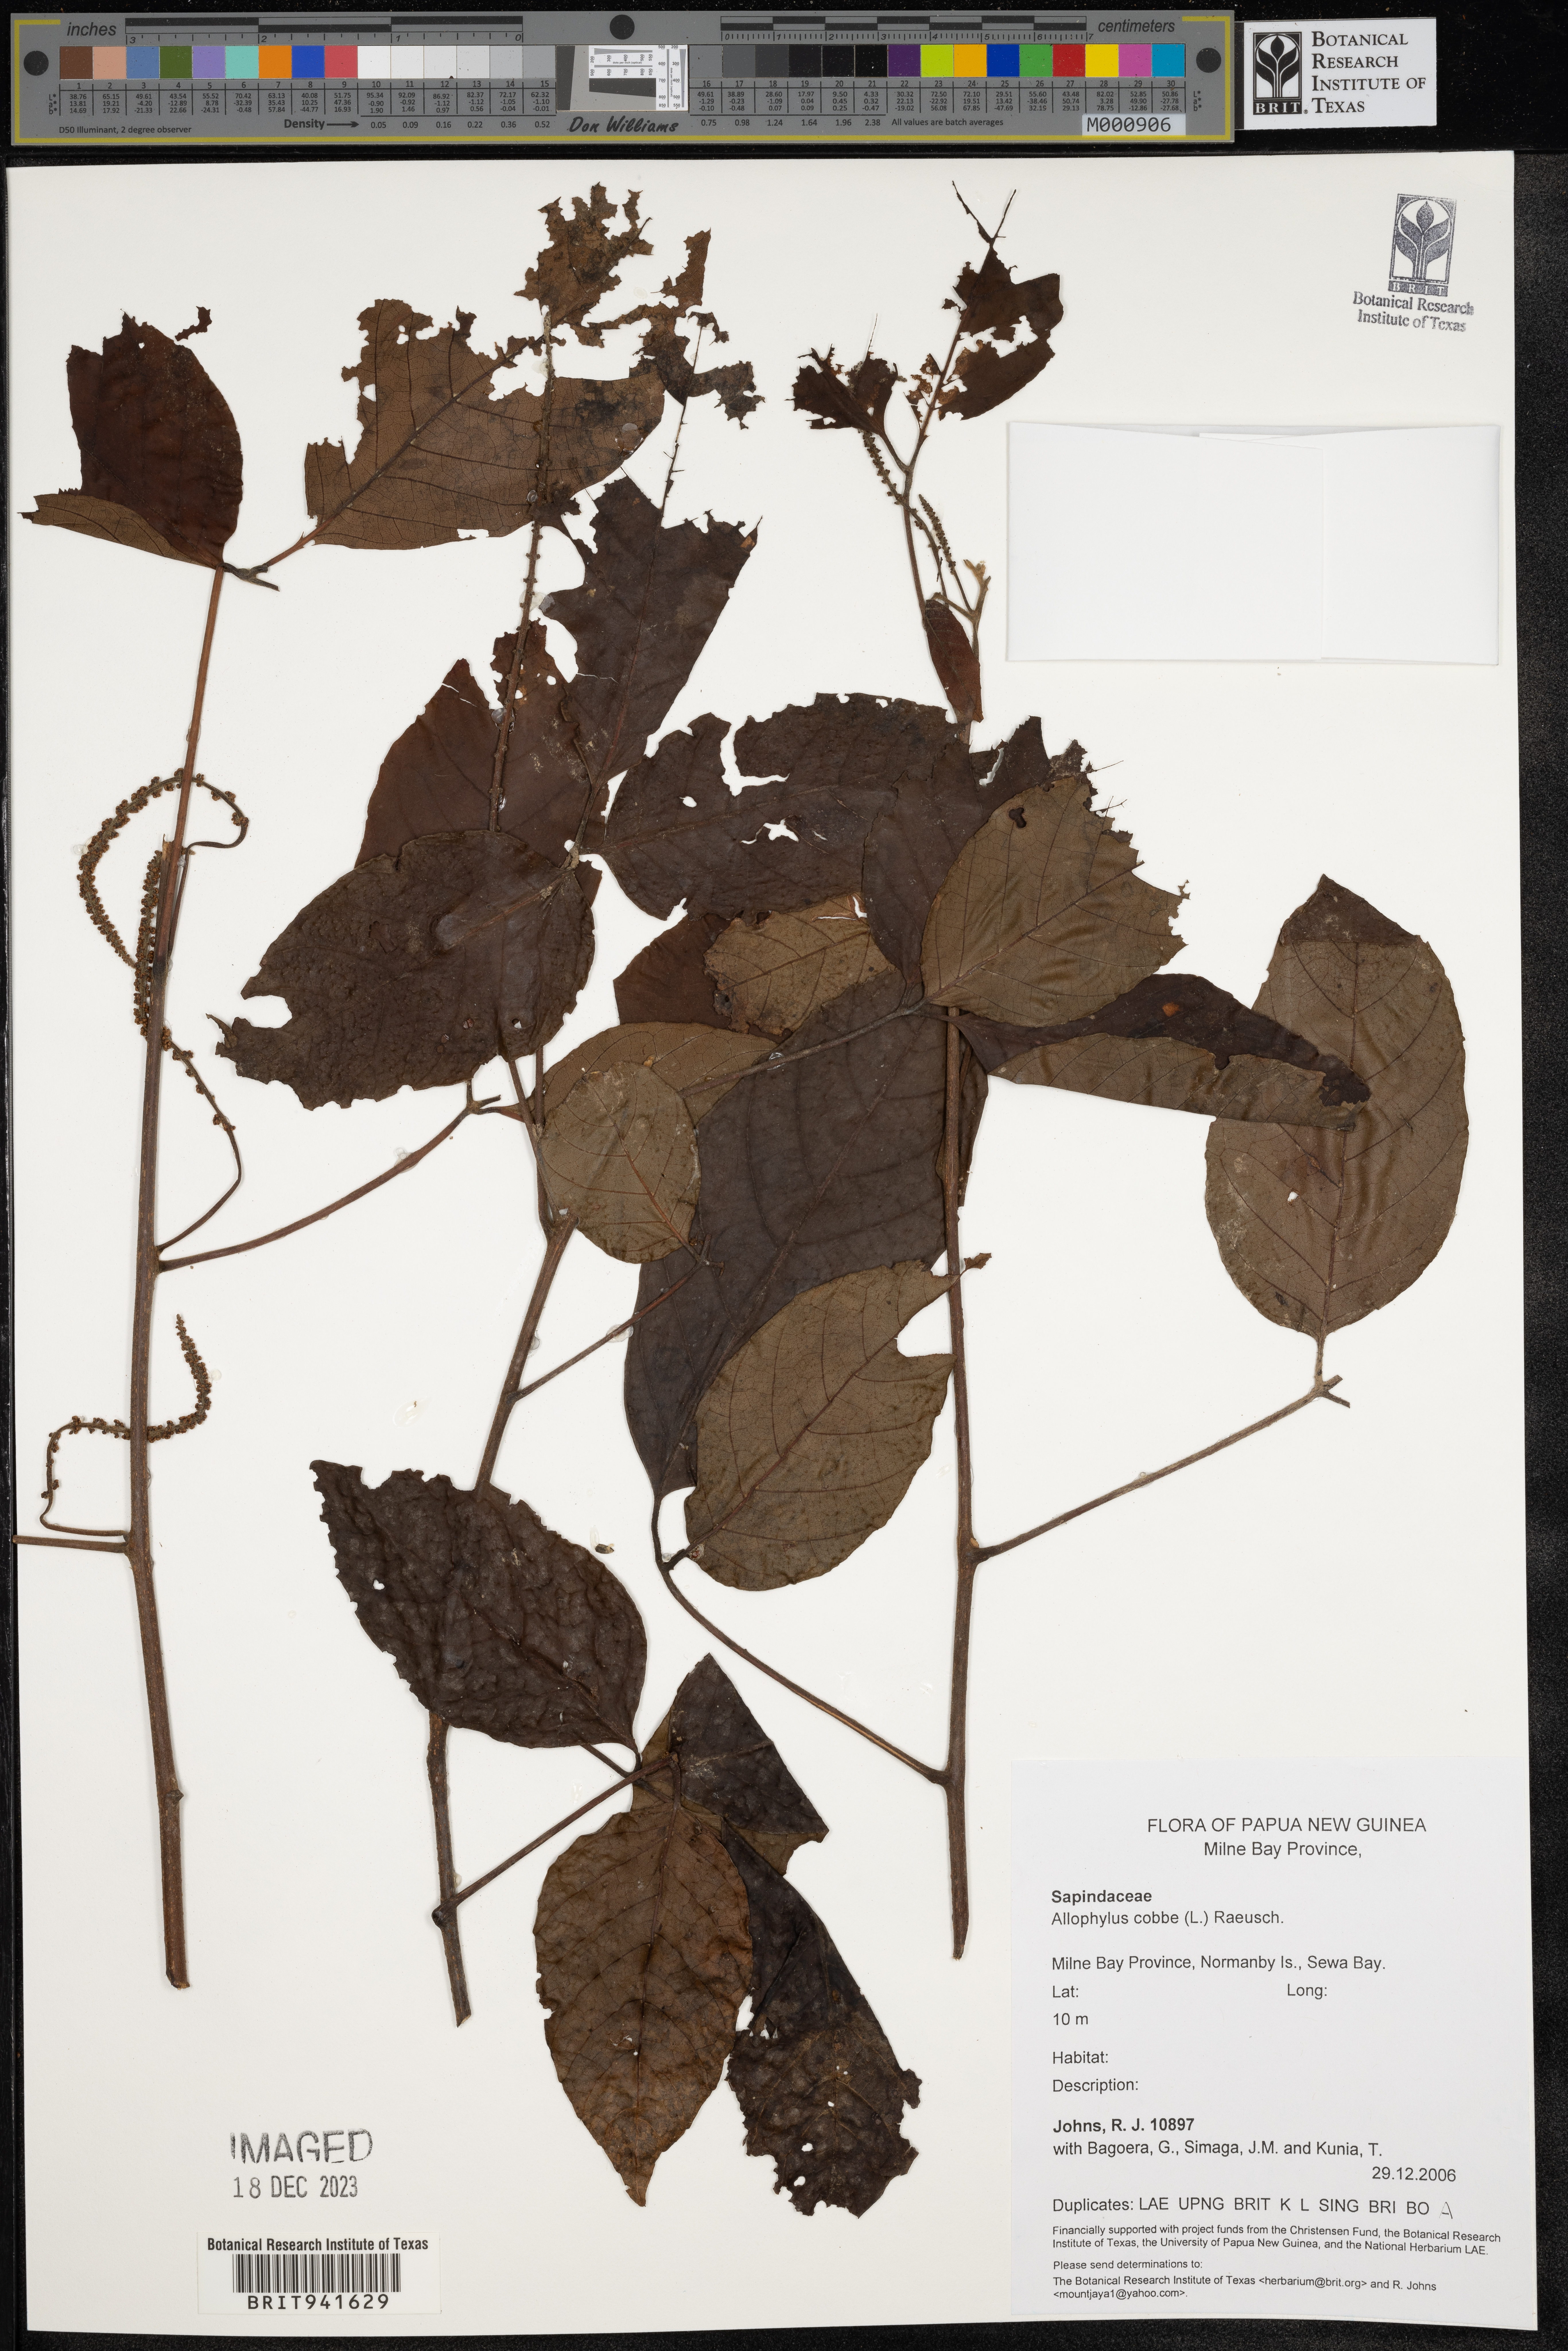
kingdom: Plantae
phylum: Tracheophyta
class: Magnoliopsida
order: Ericales
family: Polemoniaceae
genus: Allophyllum
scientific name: Allophyllum
